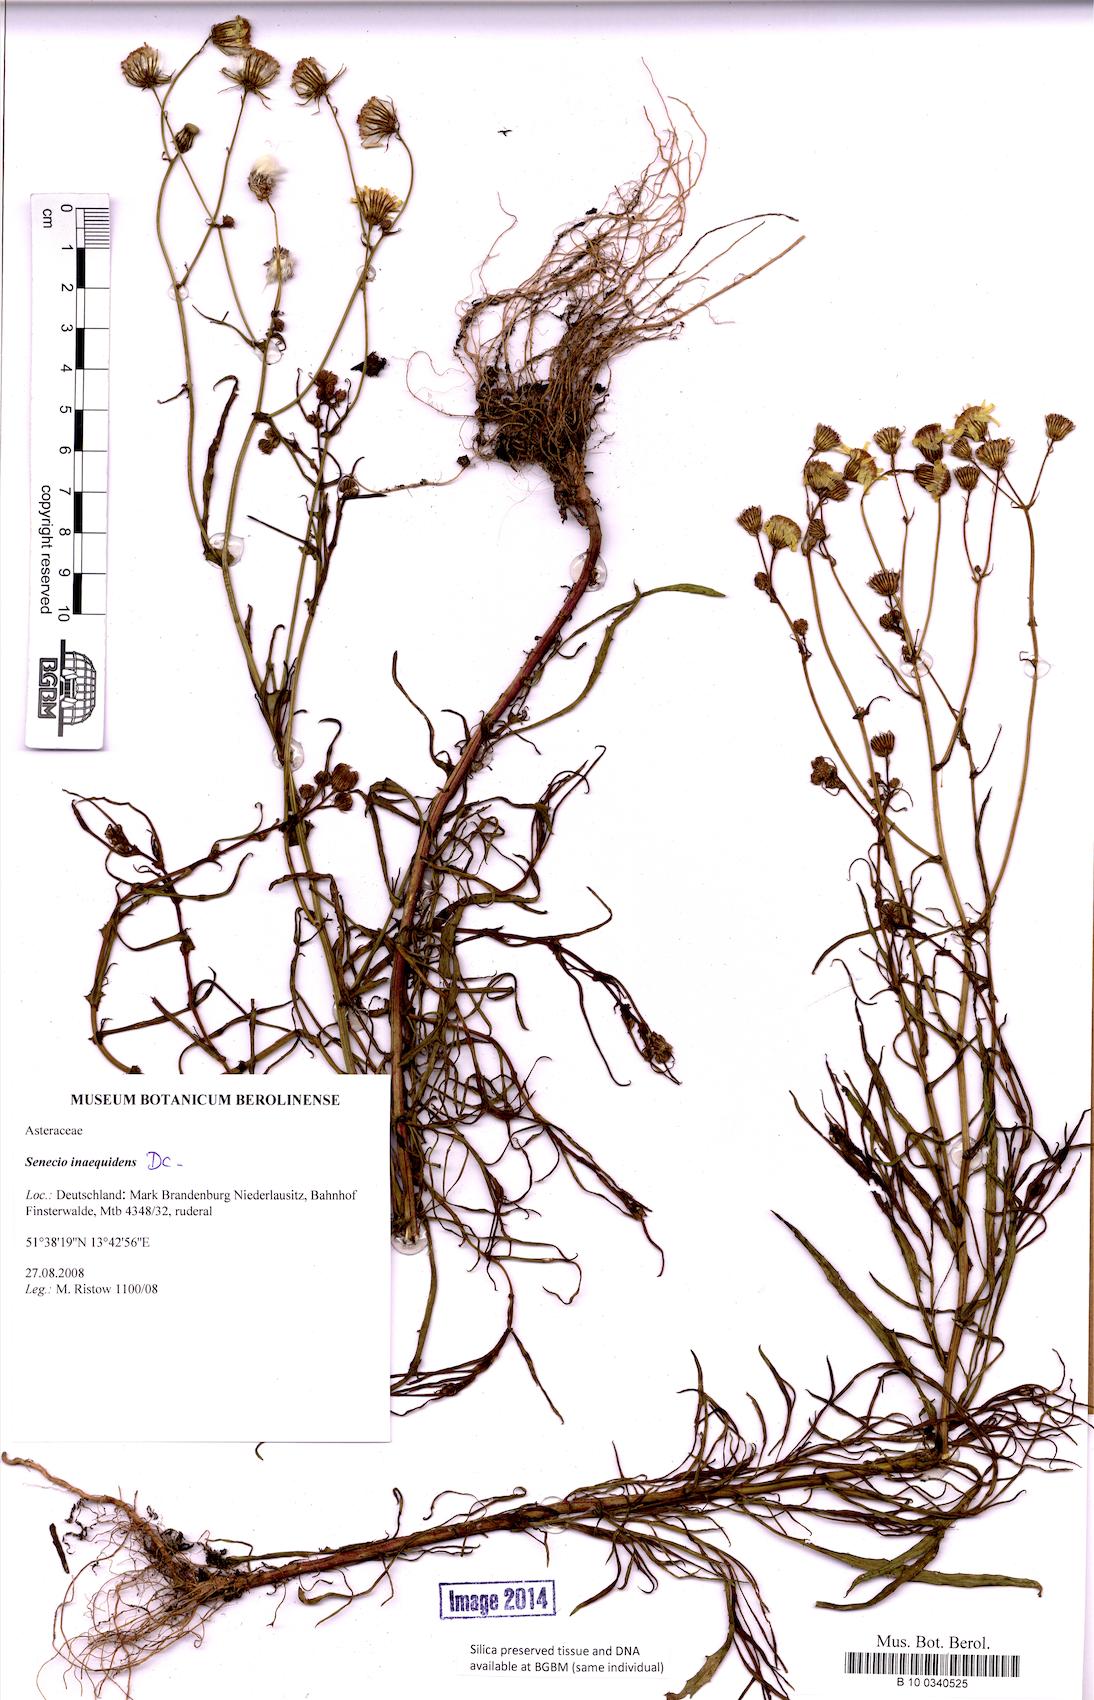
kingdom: Plantae
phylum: Tracheophyta
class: Magnoliopsida
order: Asterales
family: Asteraceae
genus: Senecio
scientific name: Senecio inaequidens
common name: Narrow-leaved ragwort
